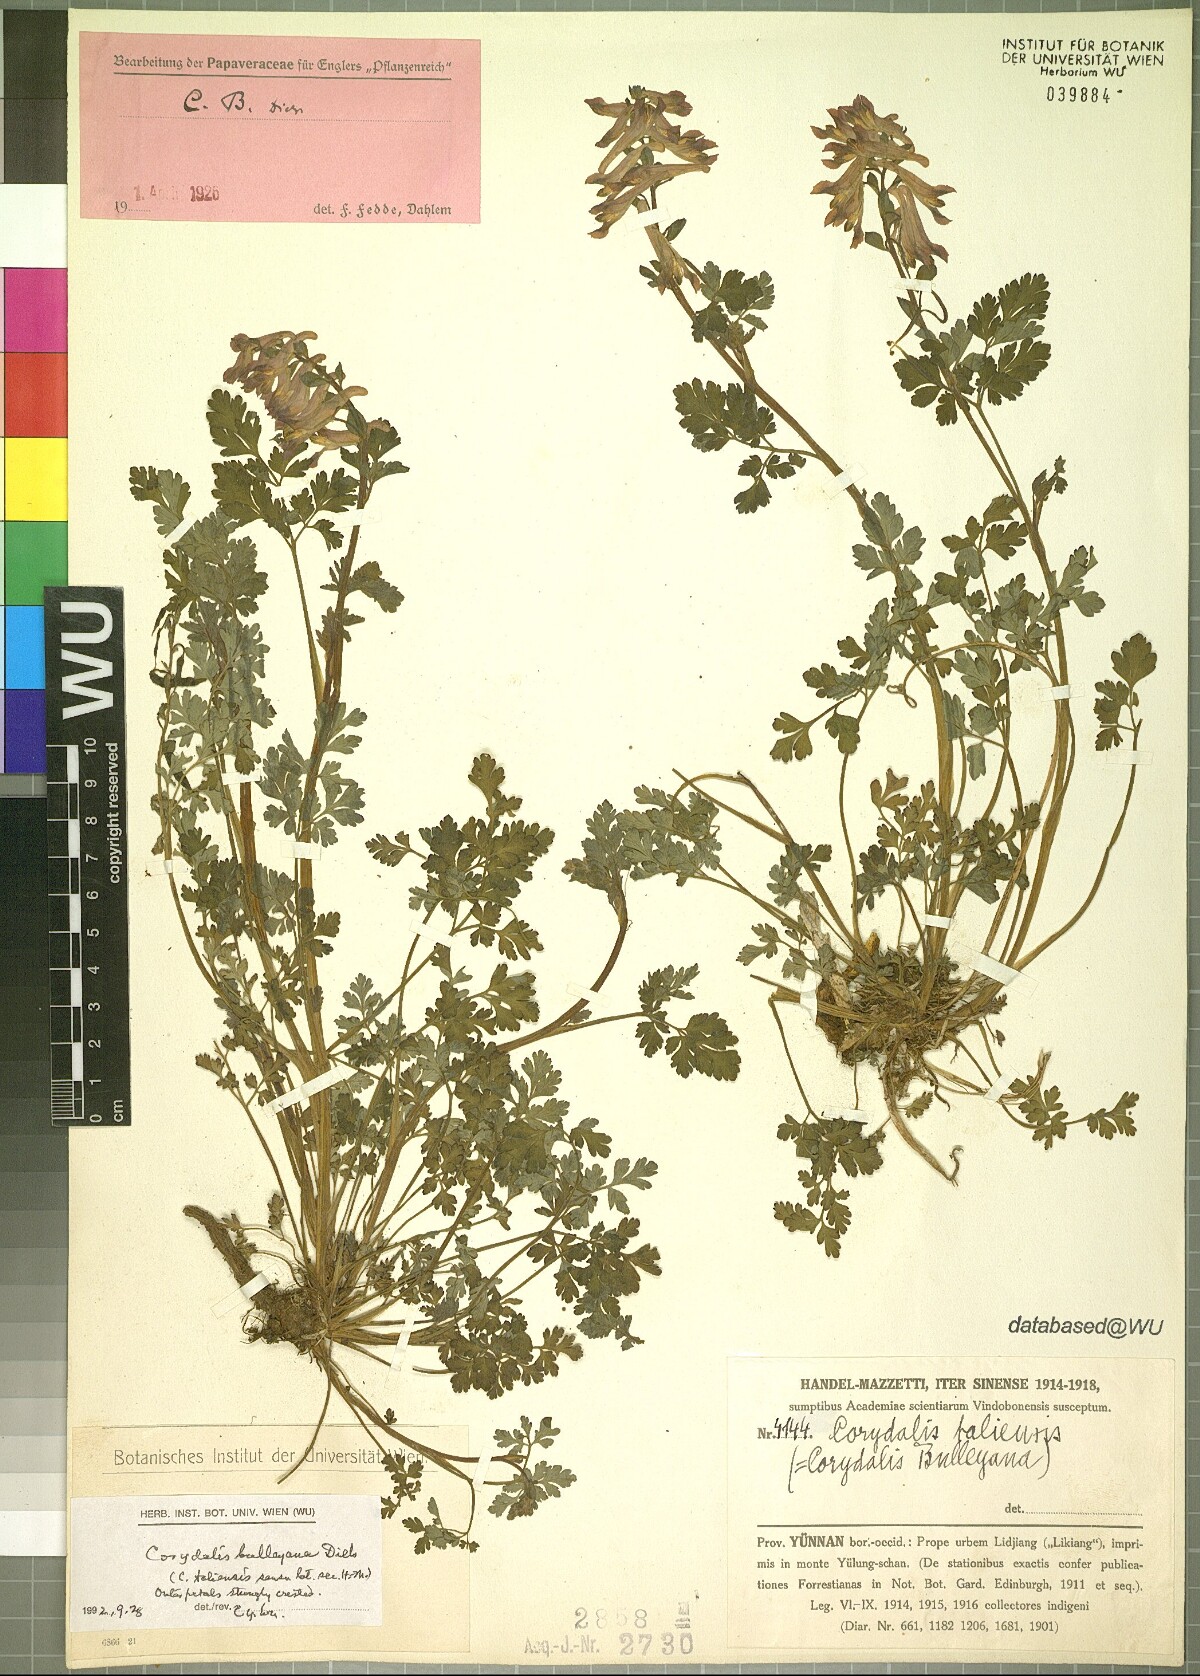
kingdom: Plantae
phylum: Tracheophyta
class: Magnoliopsida
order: Ranunculales
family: Papaveraceae
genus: Corydalis
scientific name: Corydalis bulleyana
